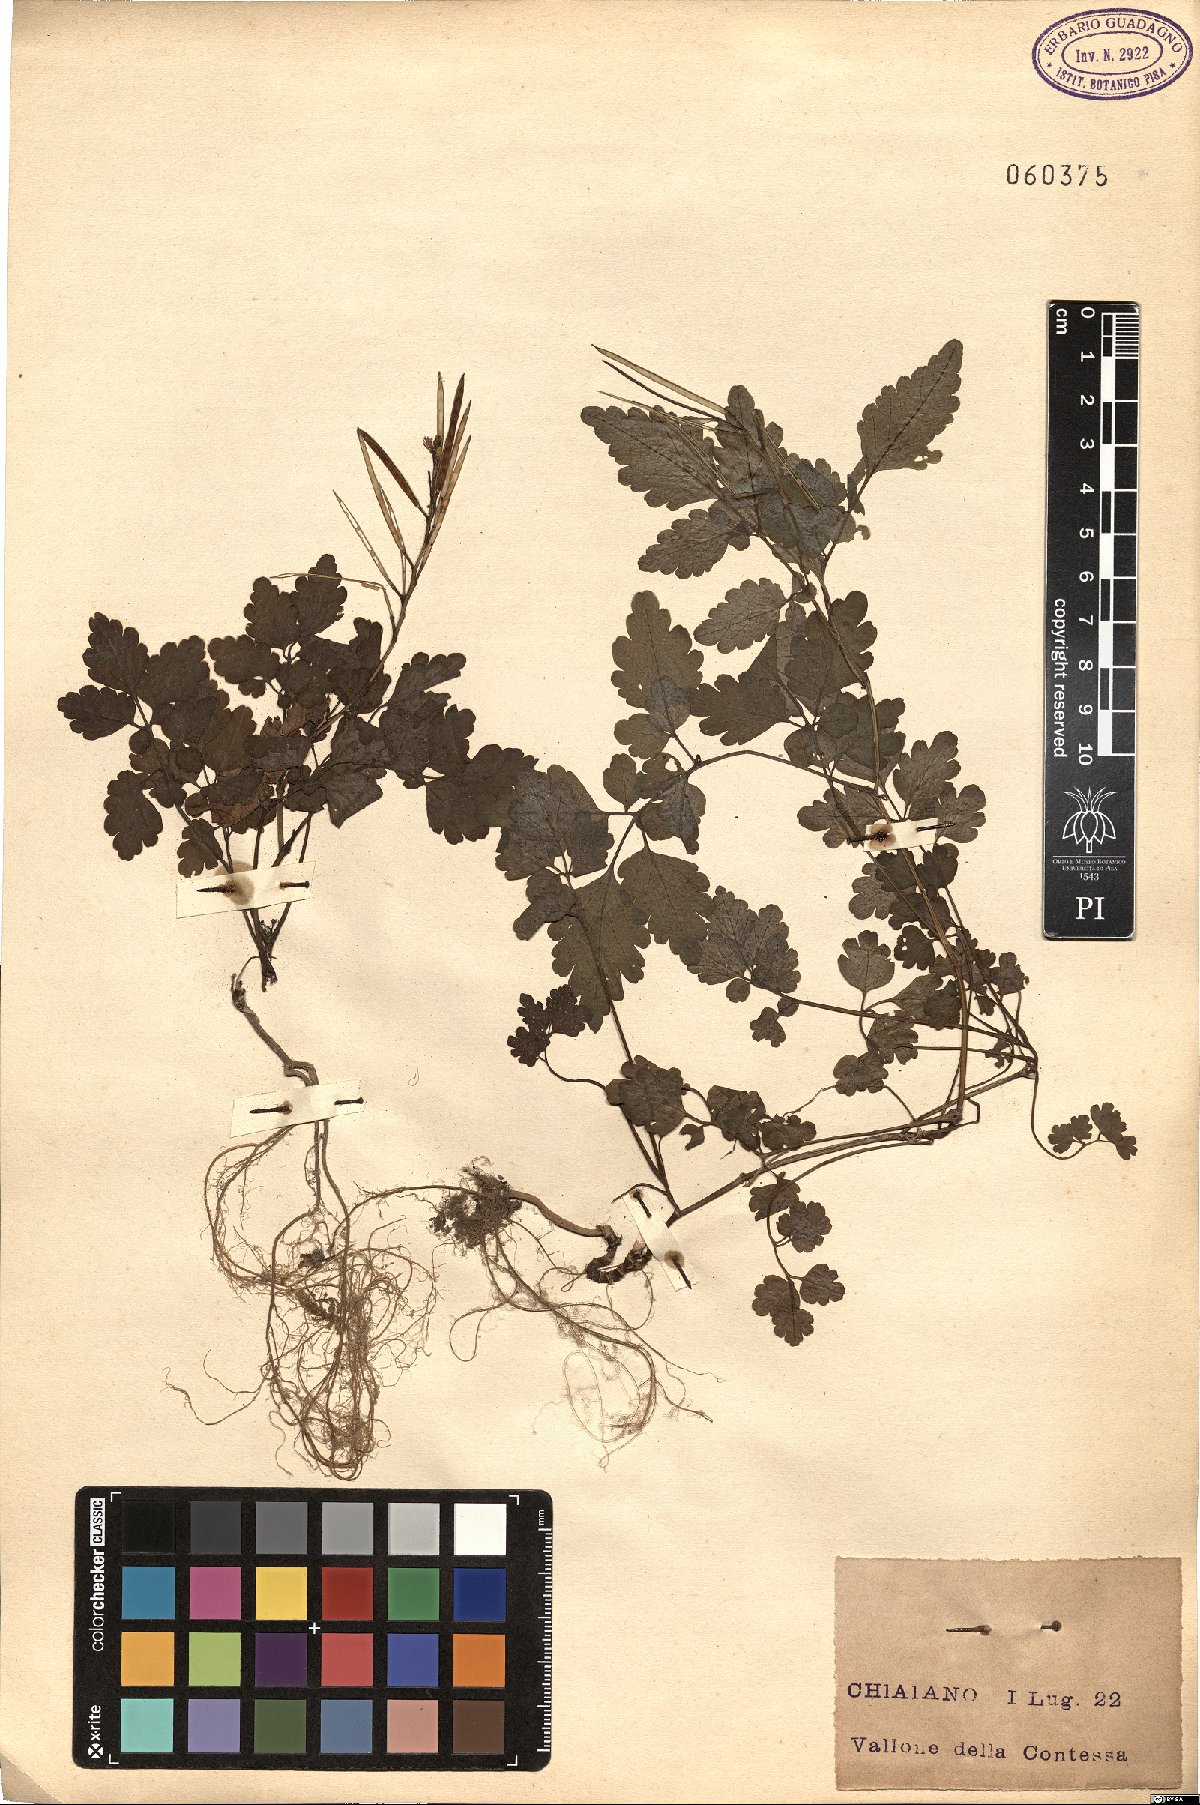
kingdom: Plantae
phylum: Tracheophyta
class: Magnoliopsida
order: Ranunculales
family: Papaveraceae
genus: Chelidonium
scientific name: Chelidonium majus
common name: Greater celandine
